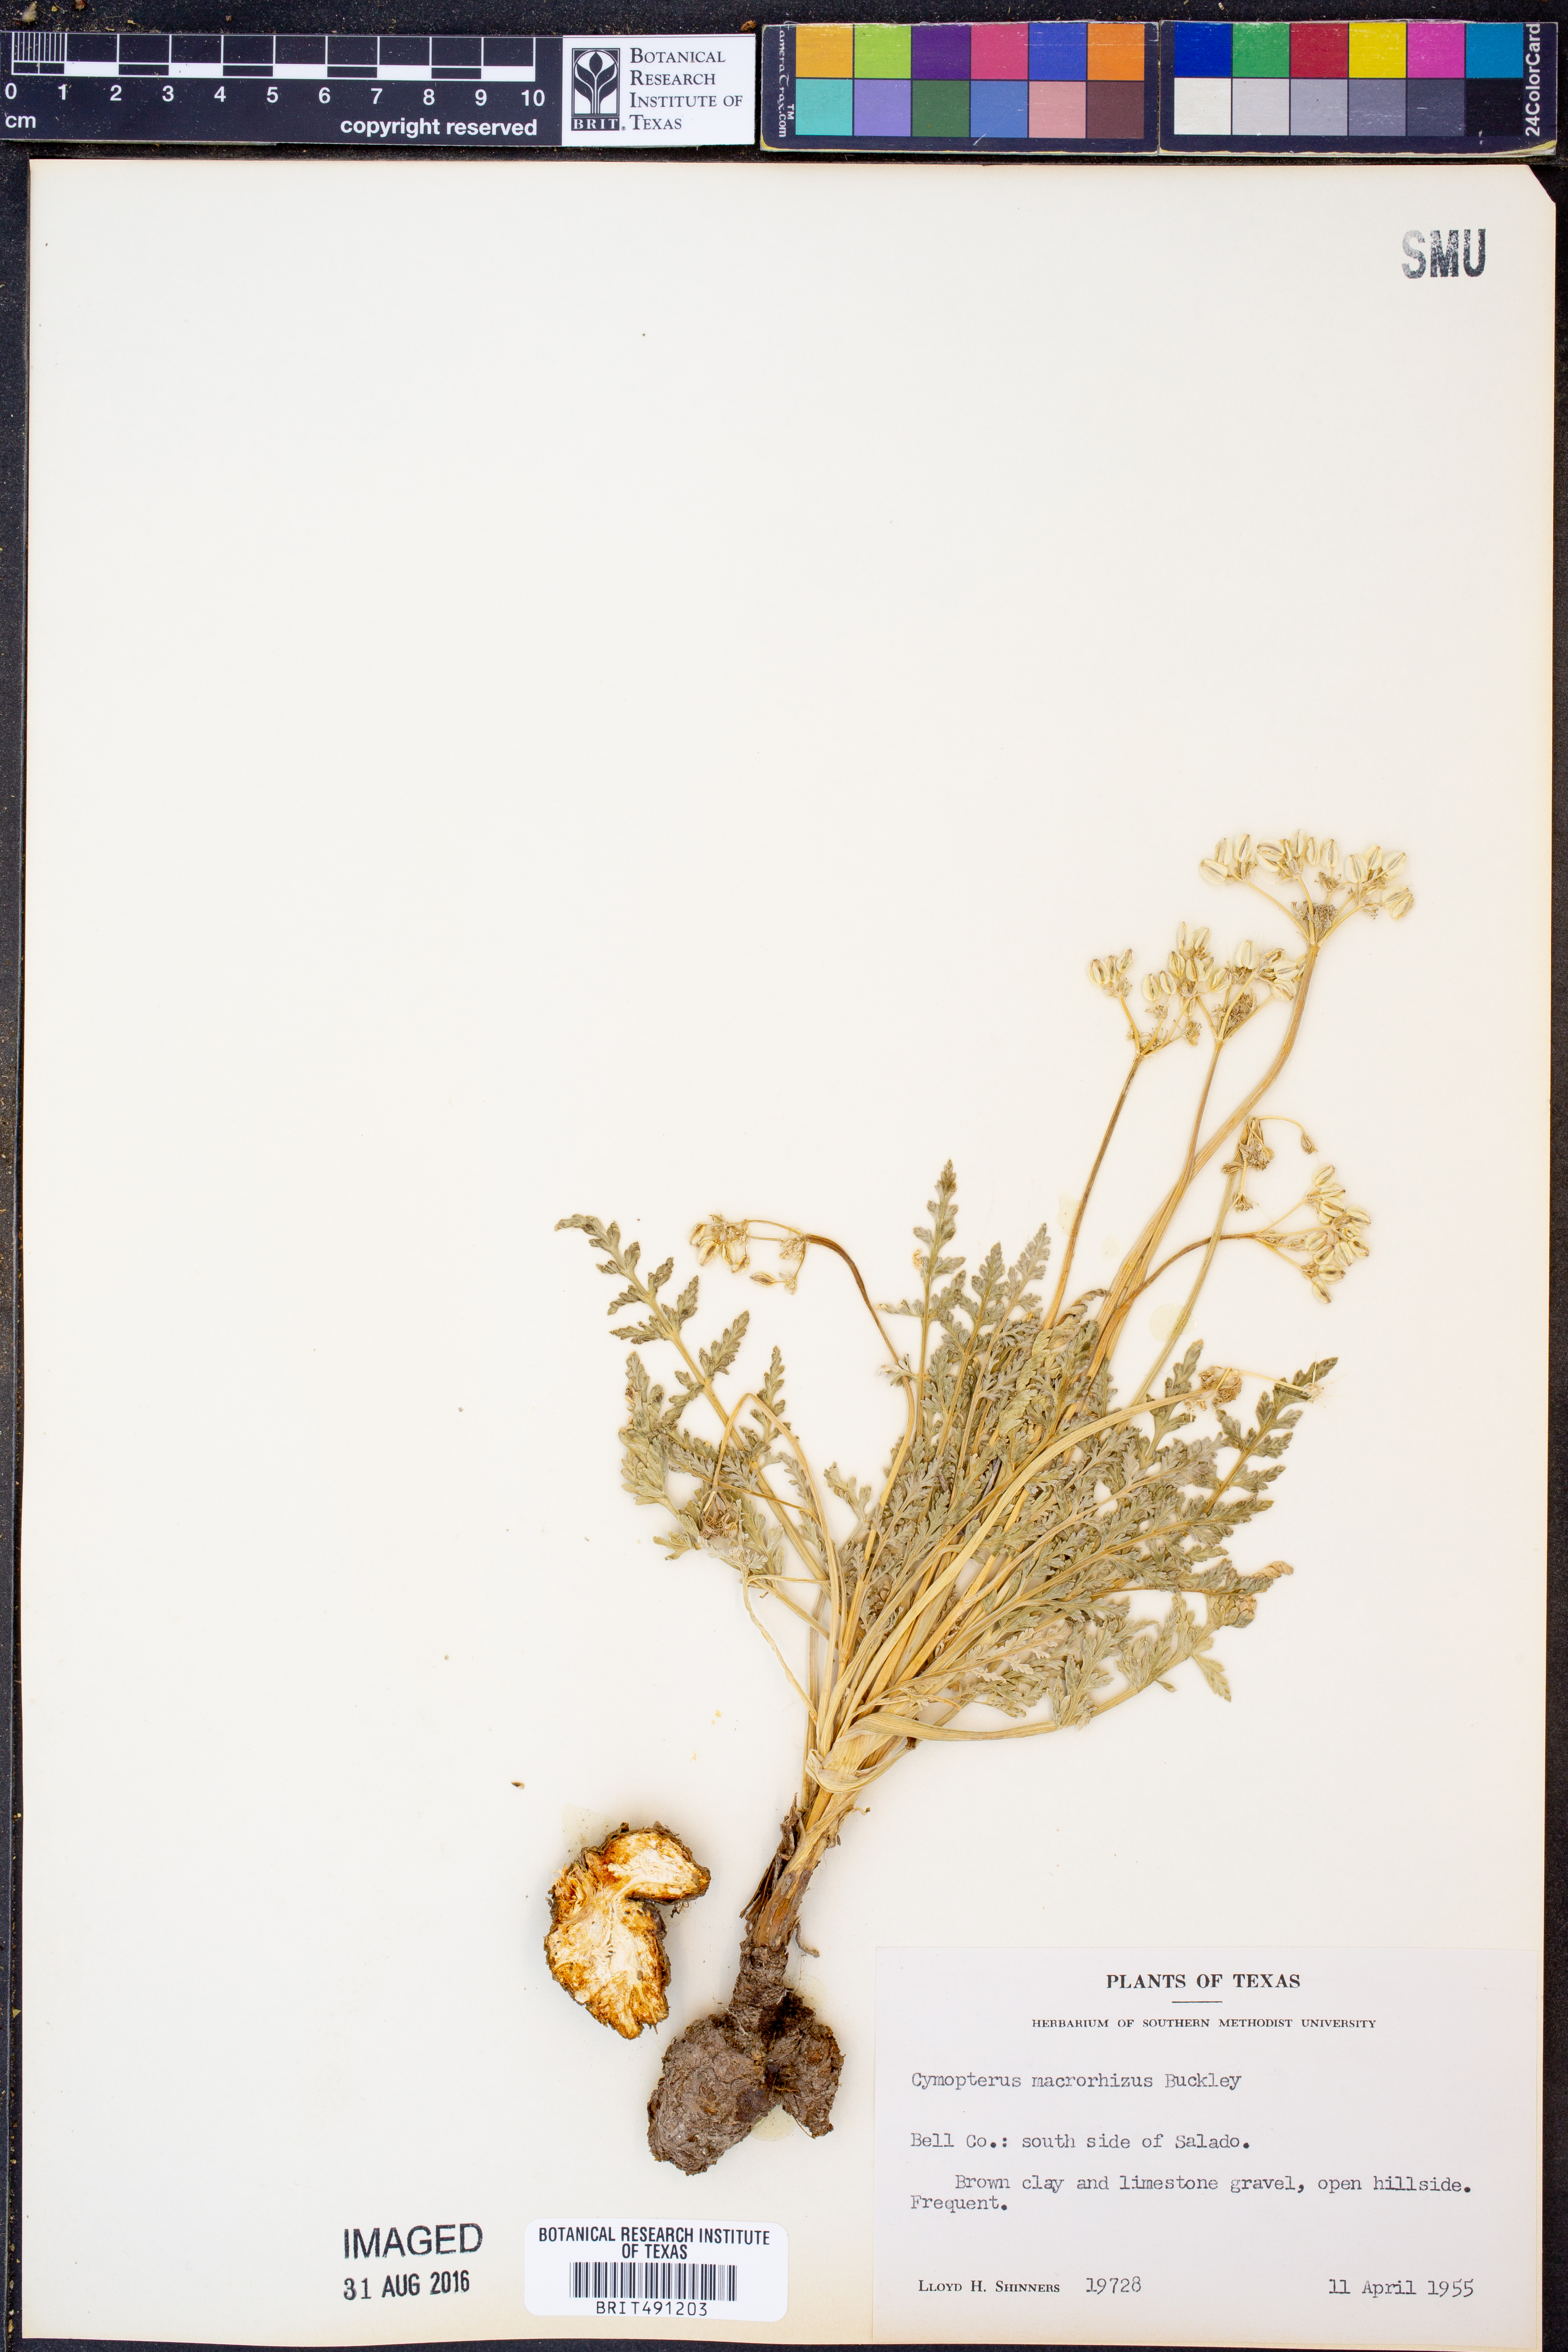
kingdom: Plantae
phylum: Tracheophyta
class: Magnoliopsida
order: Apiales
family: Apiaceae
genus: Vesper
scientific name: Vesper macrorhizus
